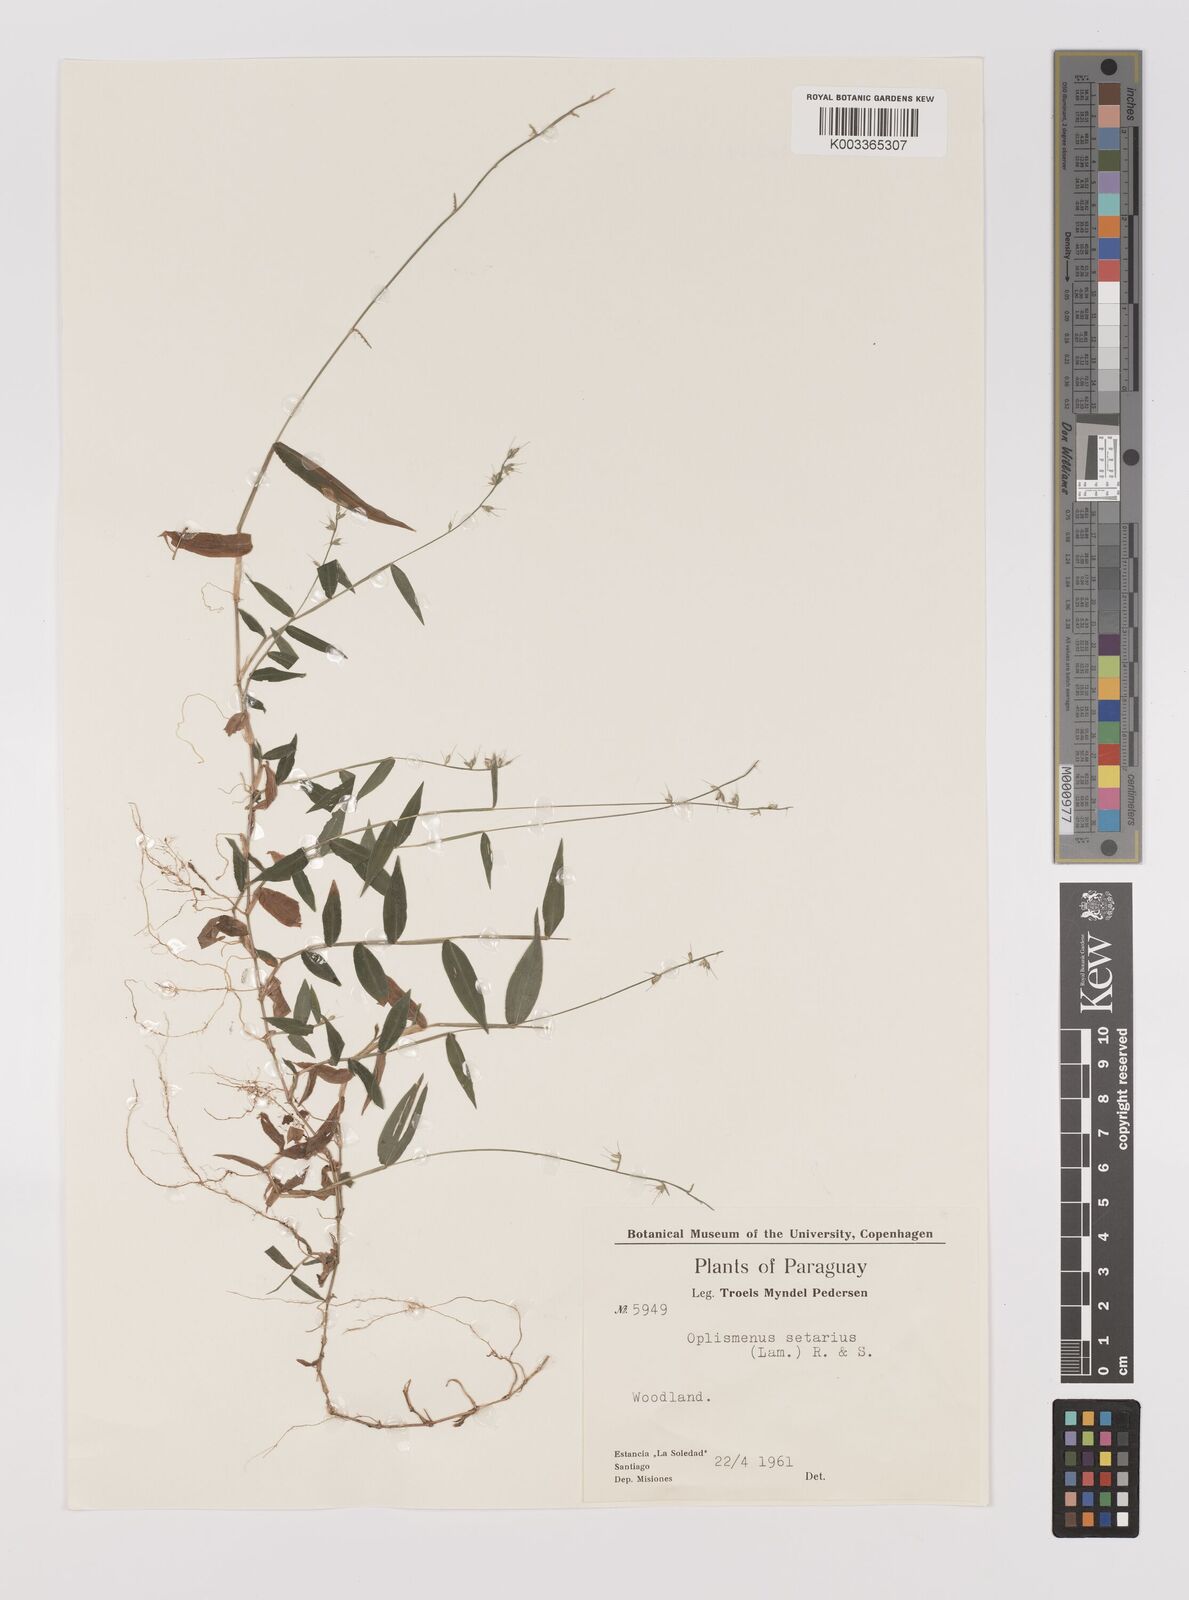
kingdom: Plantae
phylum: Tracheophyta
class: Liliopsida
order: Poales
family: Poaceae
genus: Oplismenus
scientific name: Oplismenus hirtellus
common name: Basketgrass
